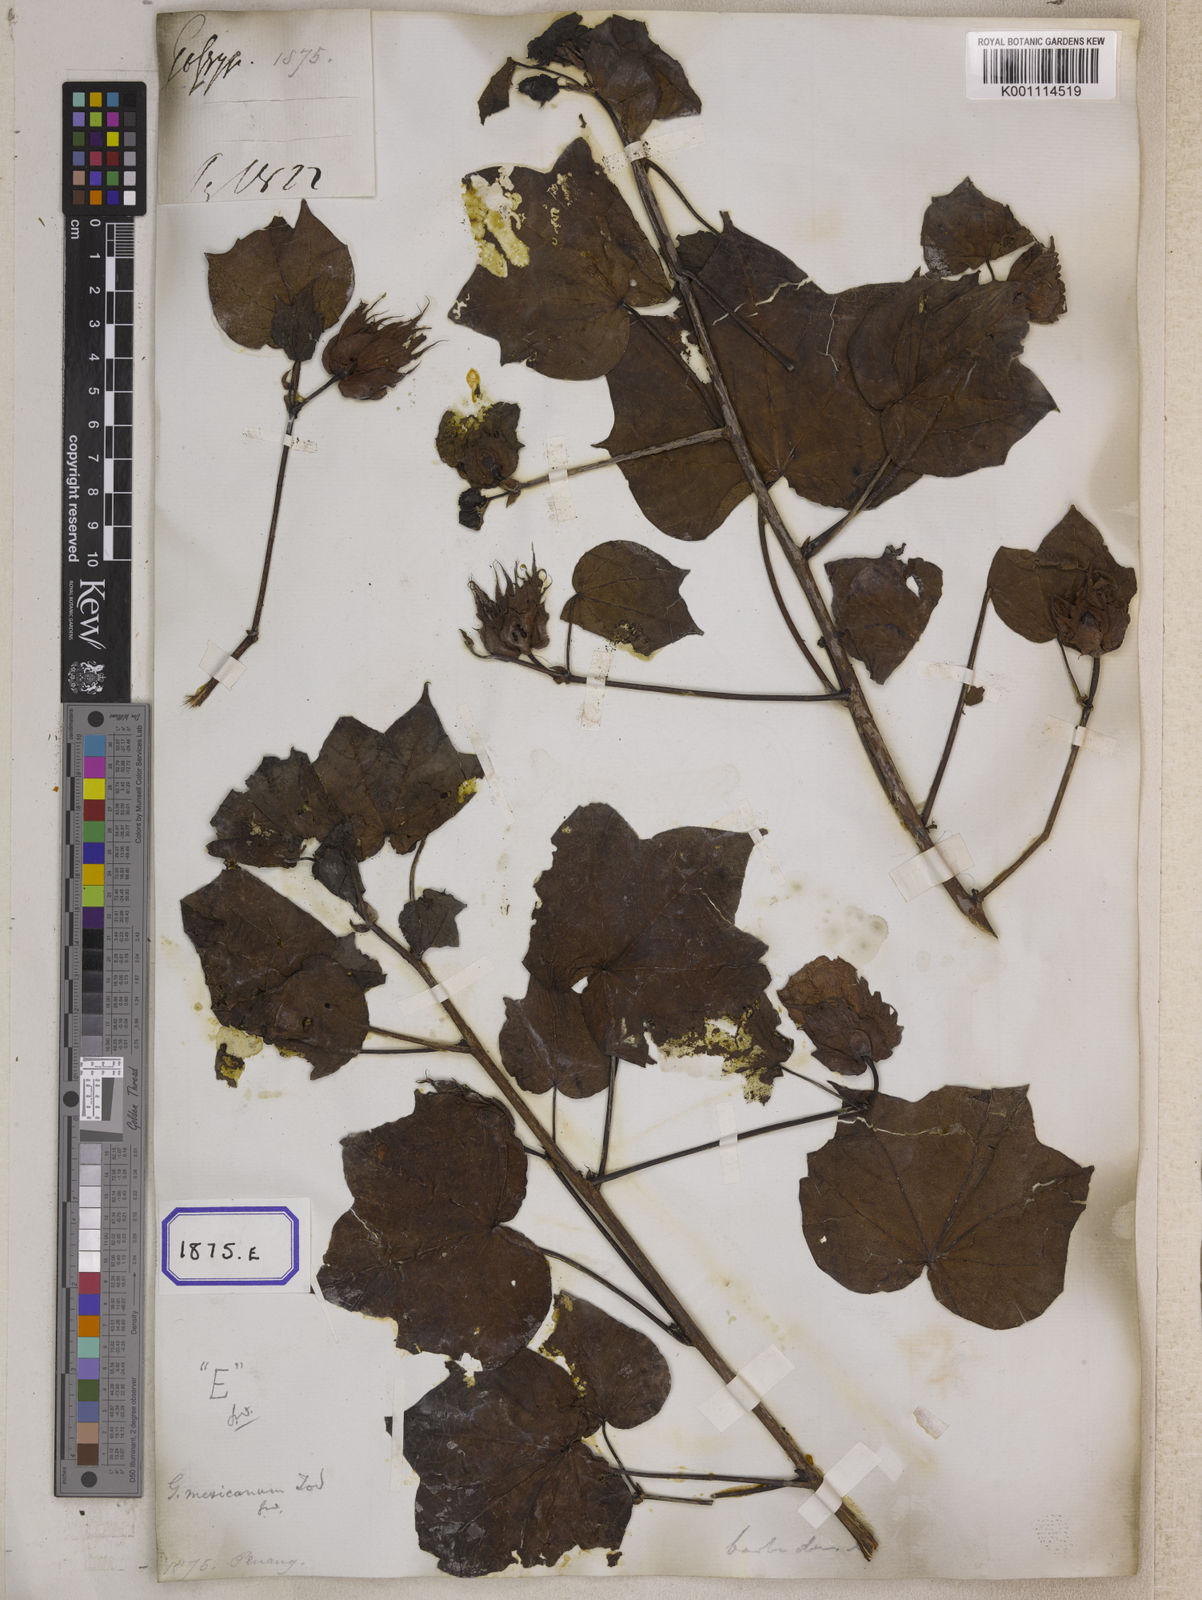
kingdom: Plantae
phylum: Tracheophyta
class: Magnoliopsida
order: Malvales
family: Malvaceae
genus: Gossypium
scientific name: Gossypium barbadense
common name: Creole cotton
